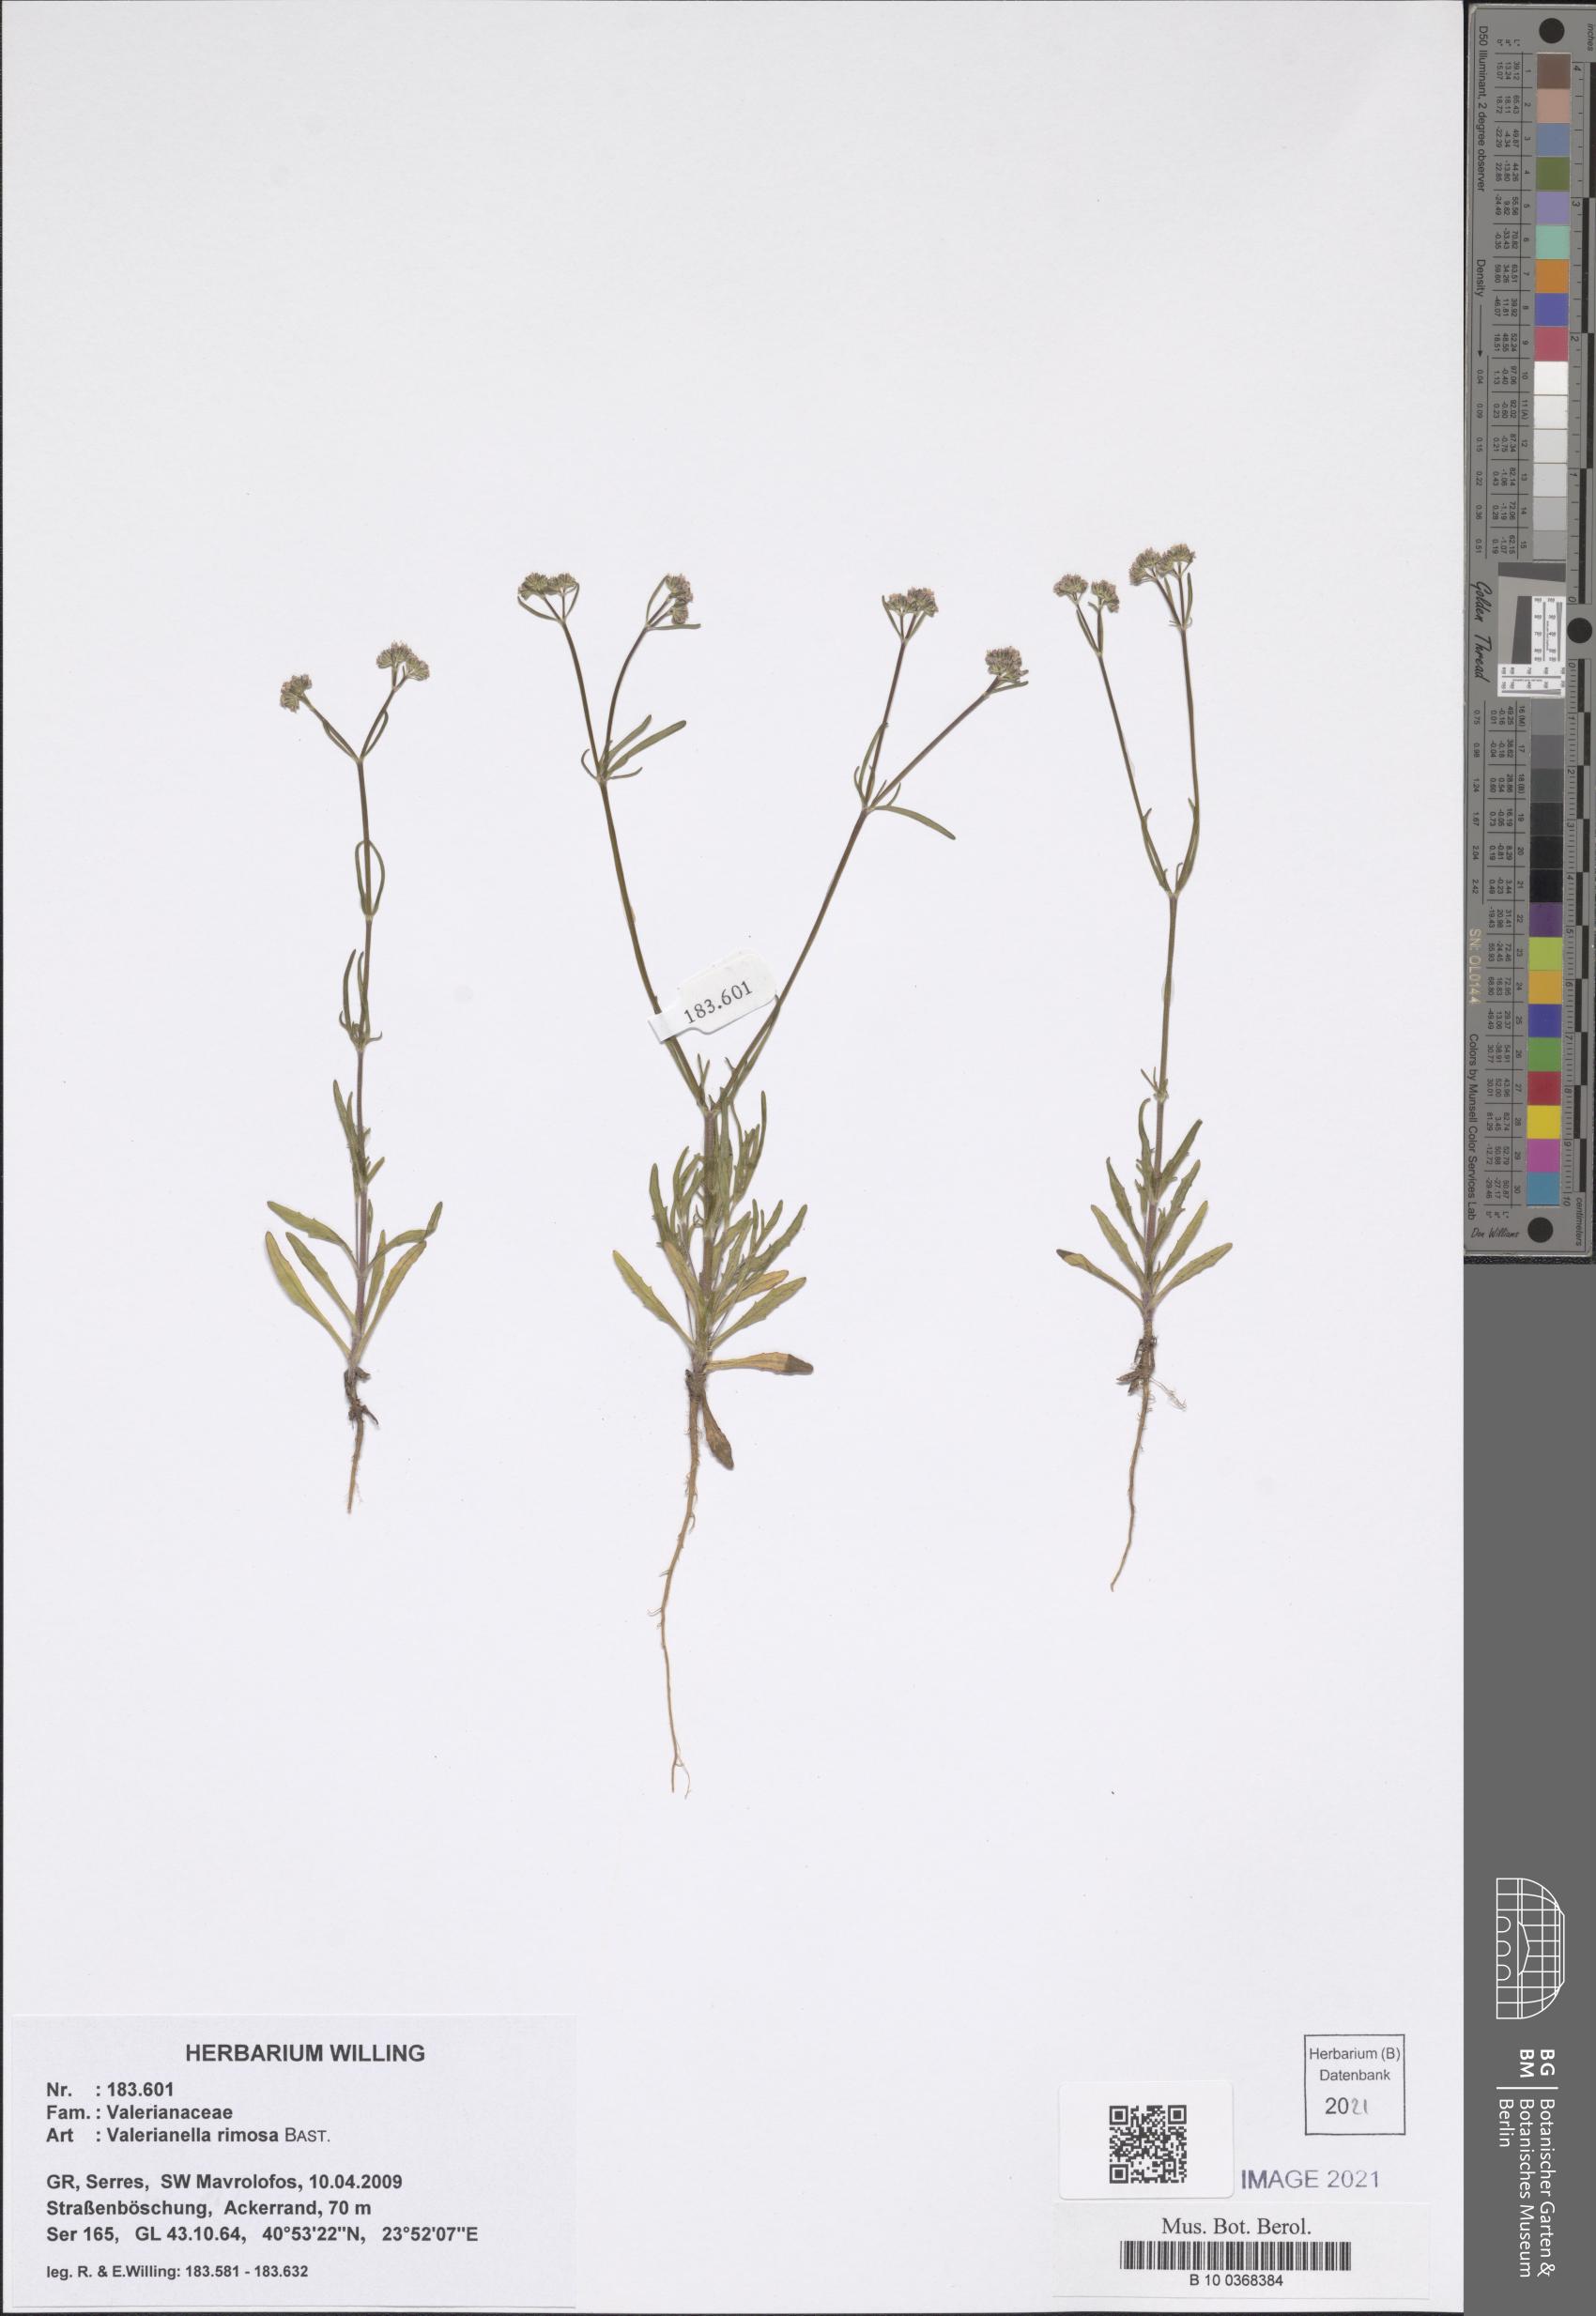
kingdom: Plantae
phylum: Tracheophyta
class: Magnoliopsida
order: Dipsacales
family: Caprifoliaceae
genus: Valerianella
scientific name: Valerianella rimosa
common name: Broad-fruited cornsalad
